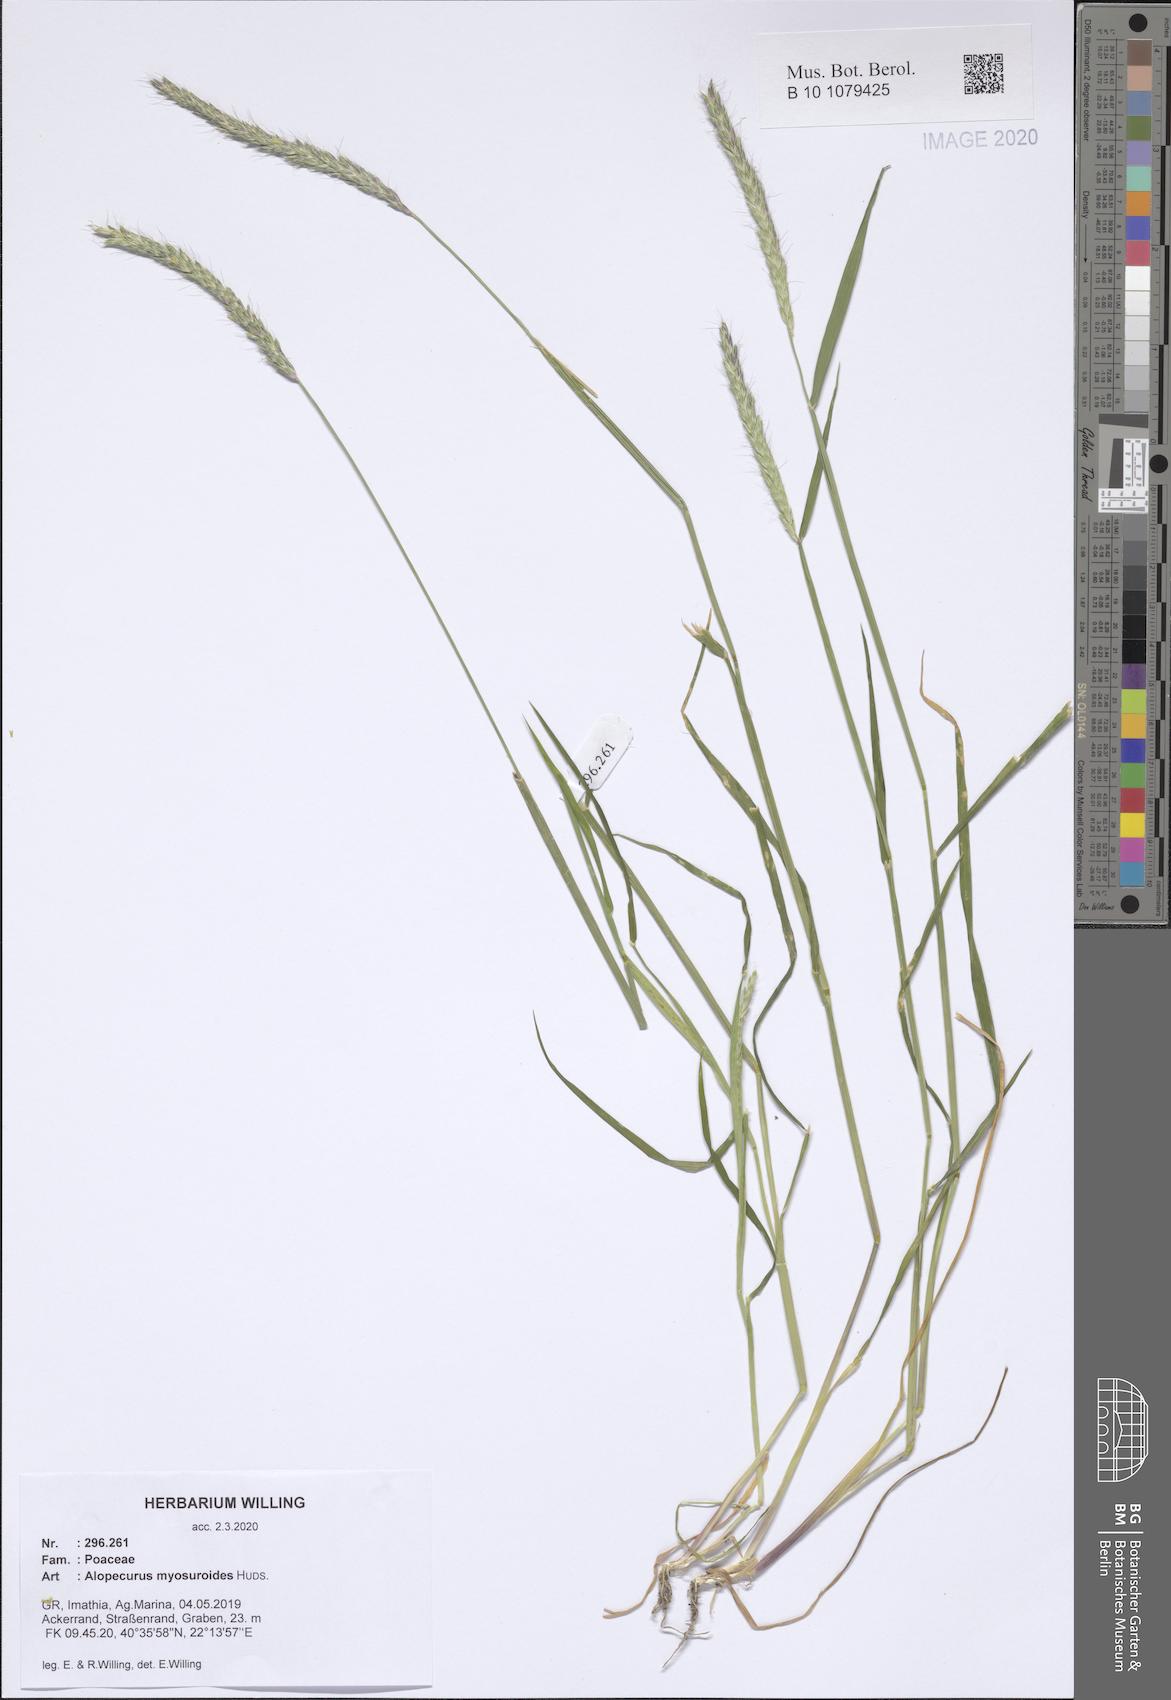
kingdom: Plantae
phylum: Tracheophyta
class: Liliopsida
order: Poales
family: Poaceae
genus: Alopecurus
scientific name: Alopecurus myosuroides
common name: Black-grass
